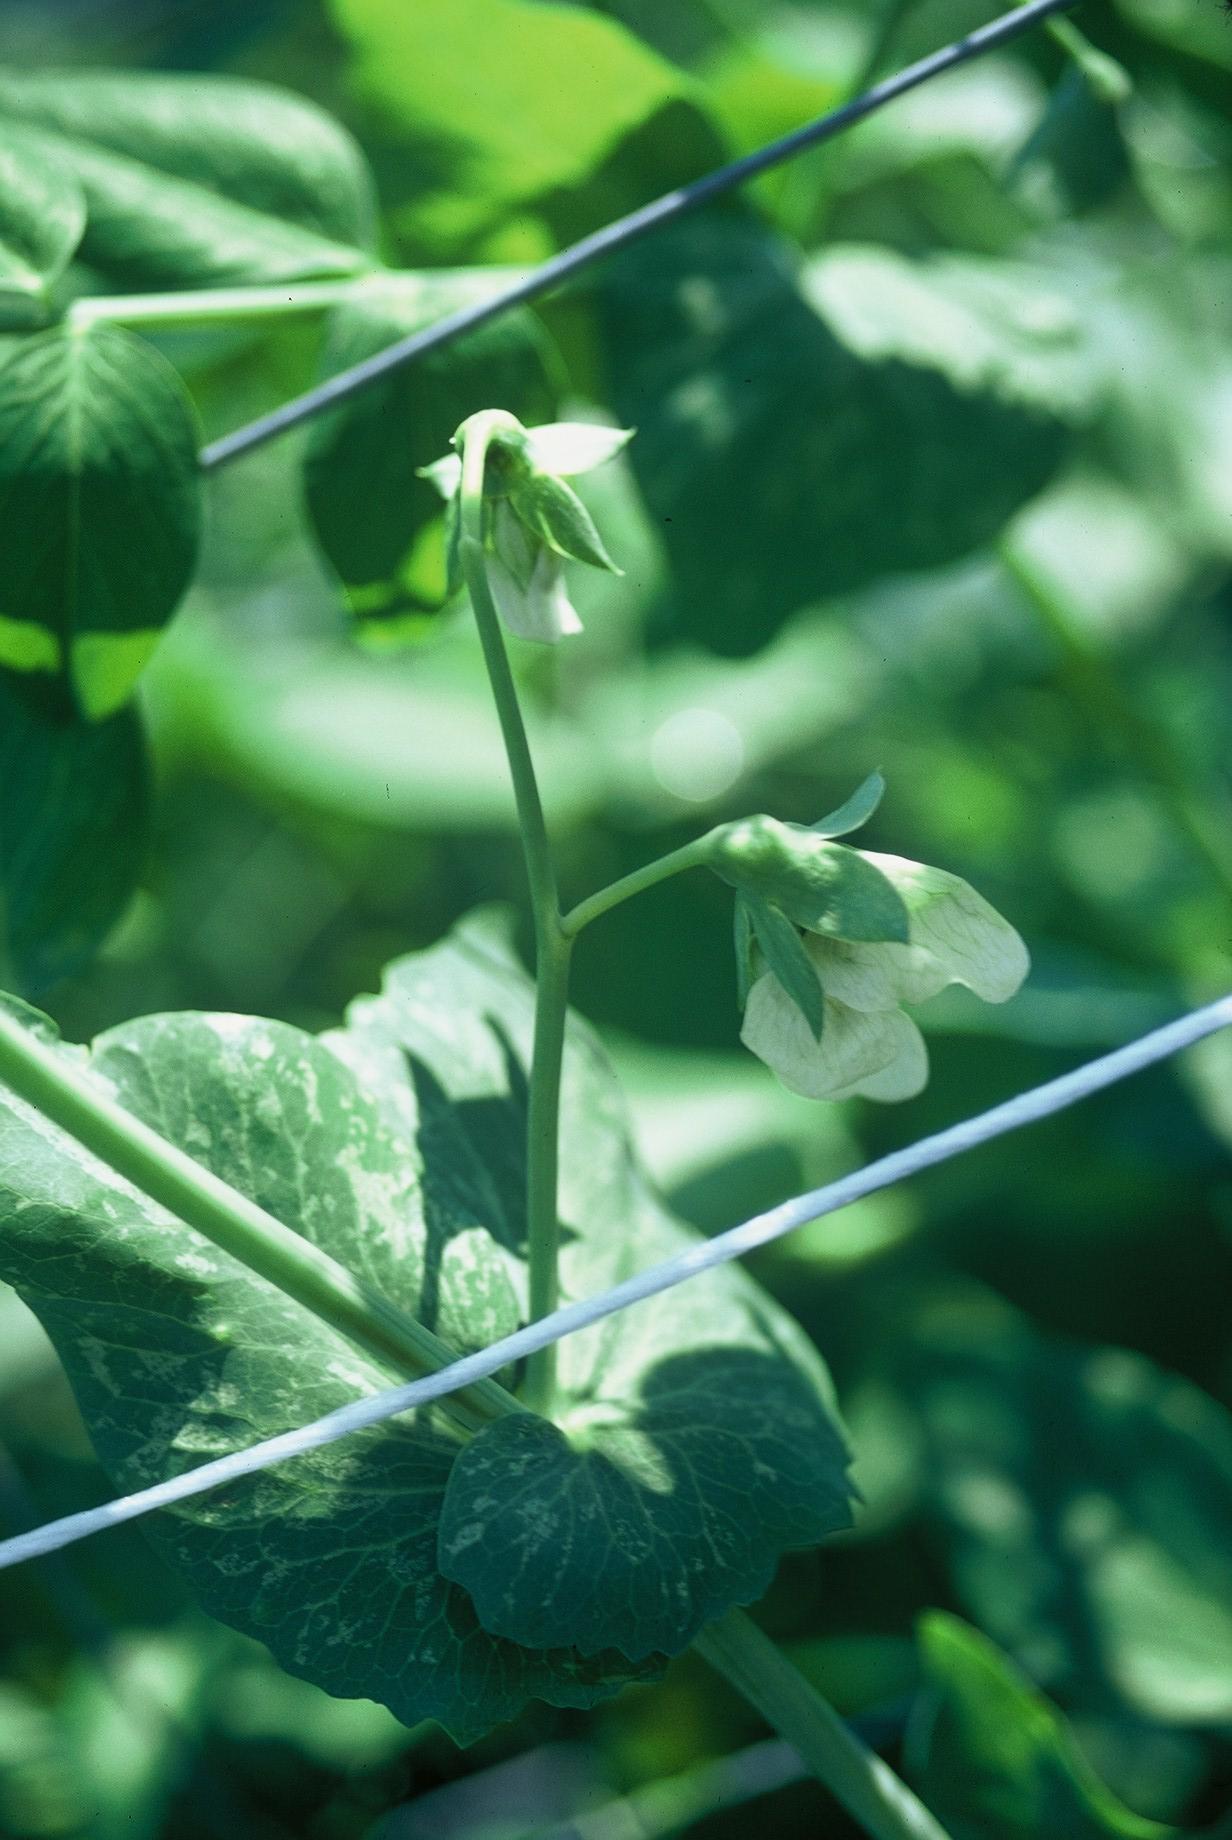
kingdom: Plantae
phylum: Tracheophyta
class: Magnoliopsida
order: Fabales
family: Fabaceae
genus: Lathyrus
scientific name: Lathyrus oleraceus
